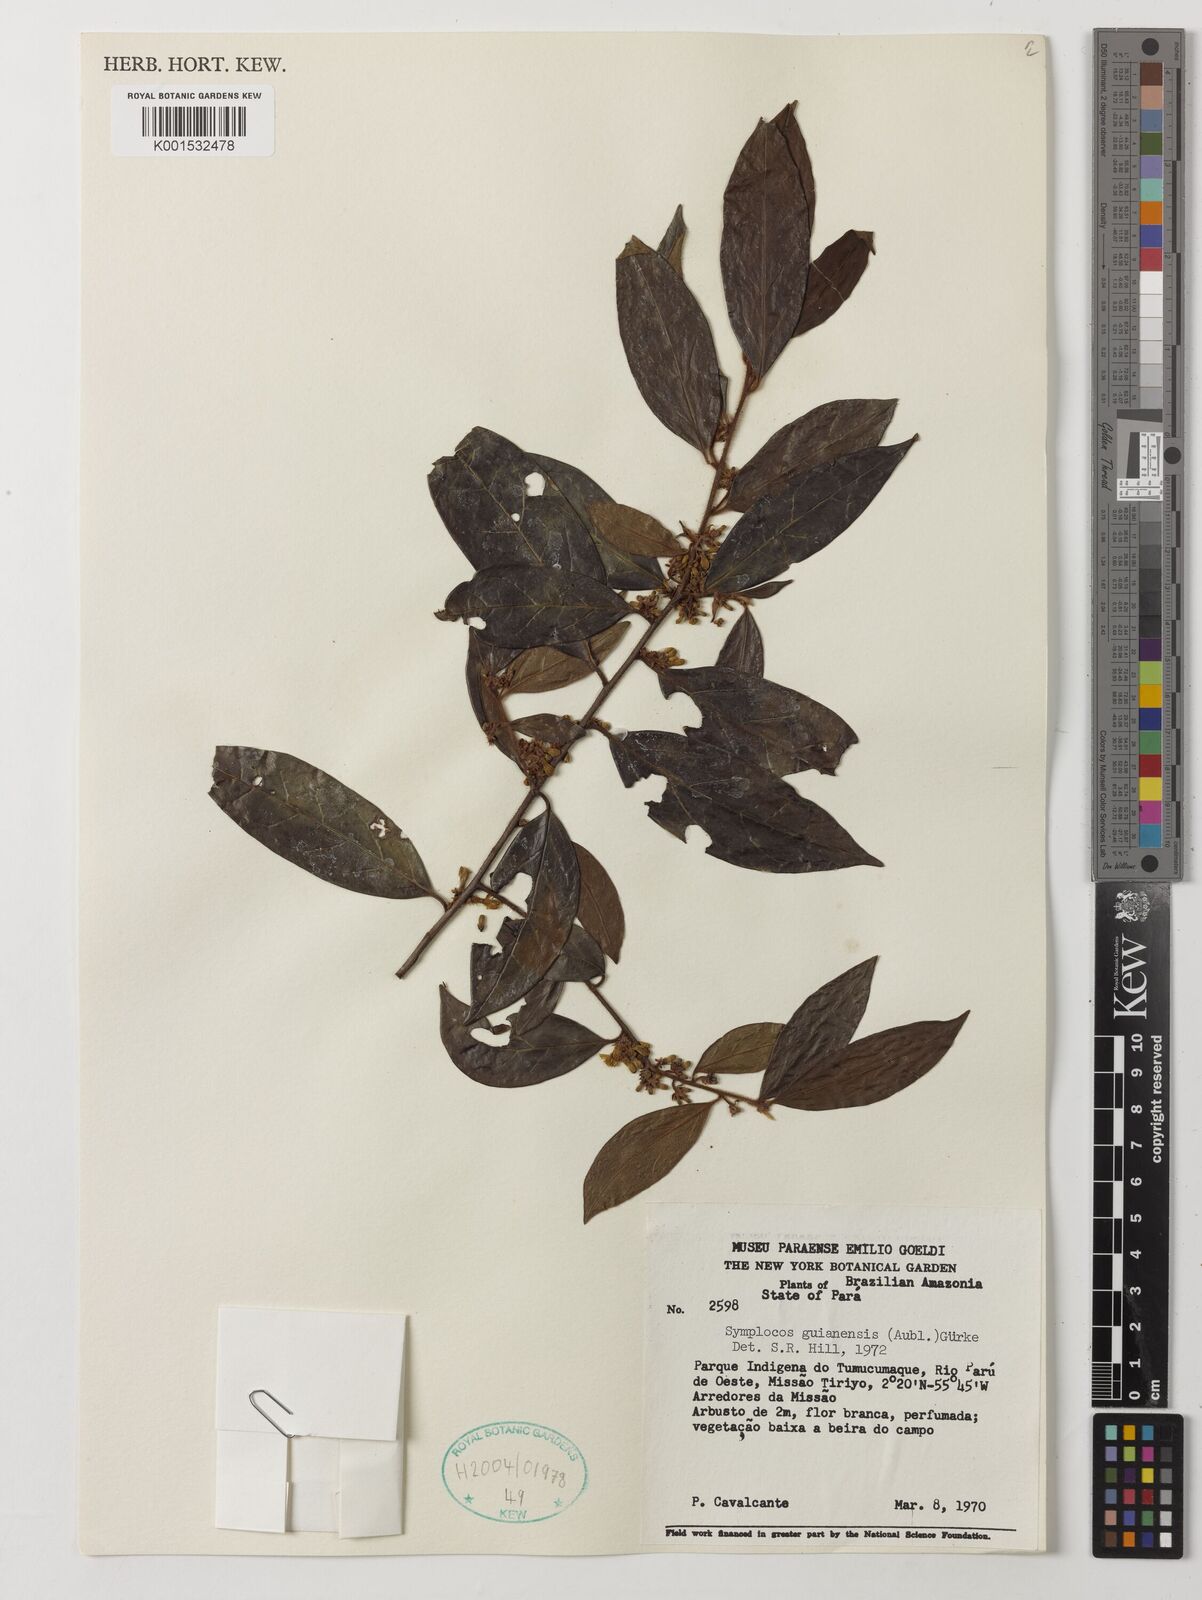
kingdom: Plantae
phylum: Tracheophyta
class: Magnoliopsida
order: Ericales
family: Symplocaceae
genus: Symplocos
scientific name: Symplocos guianensis
